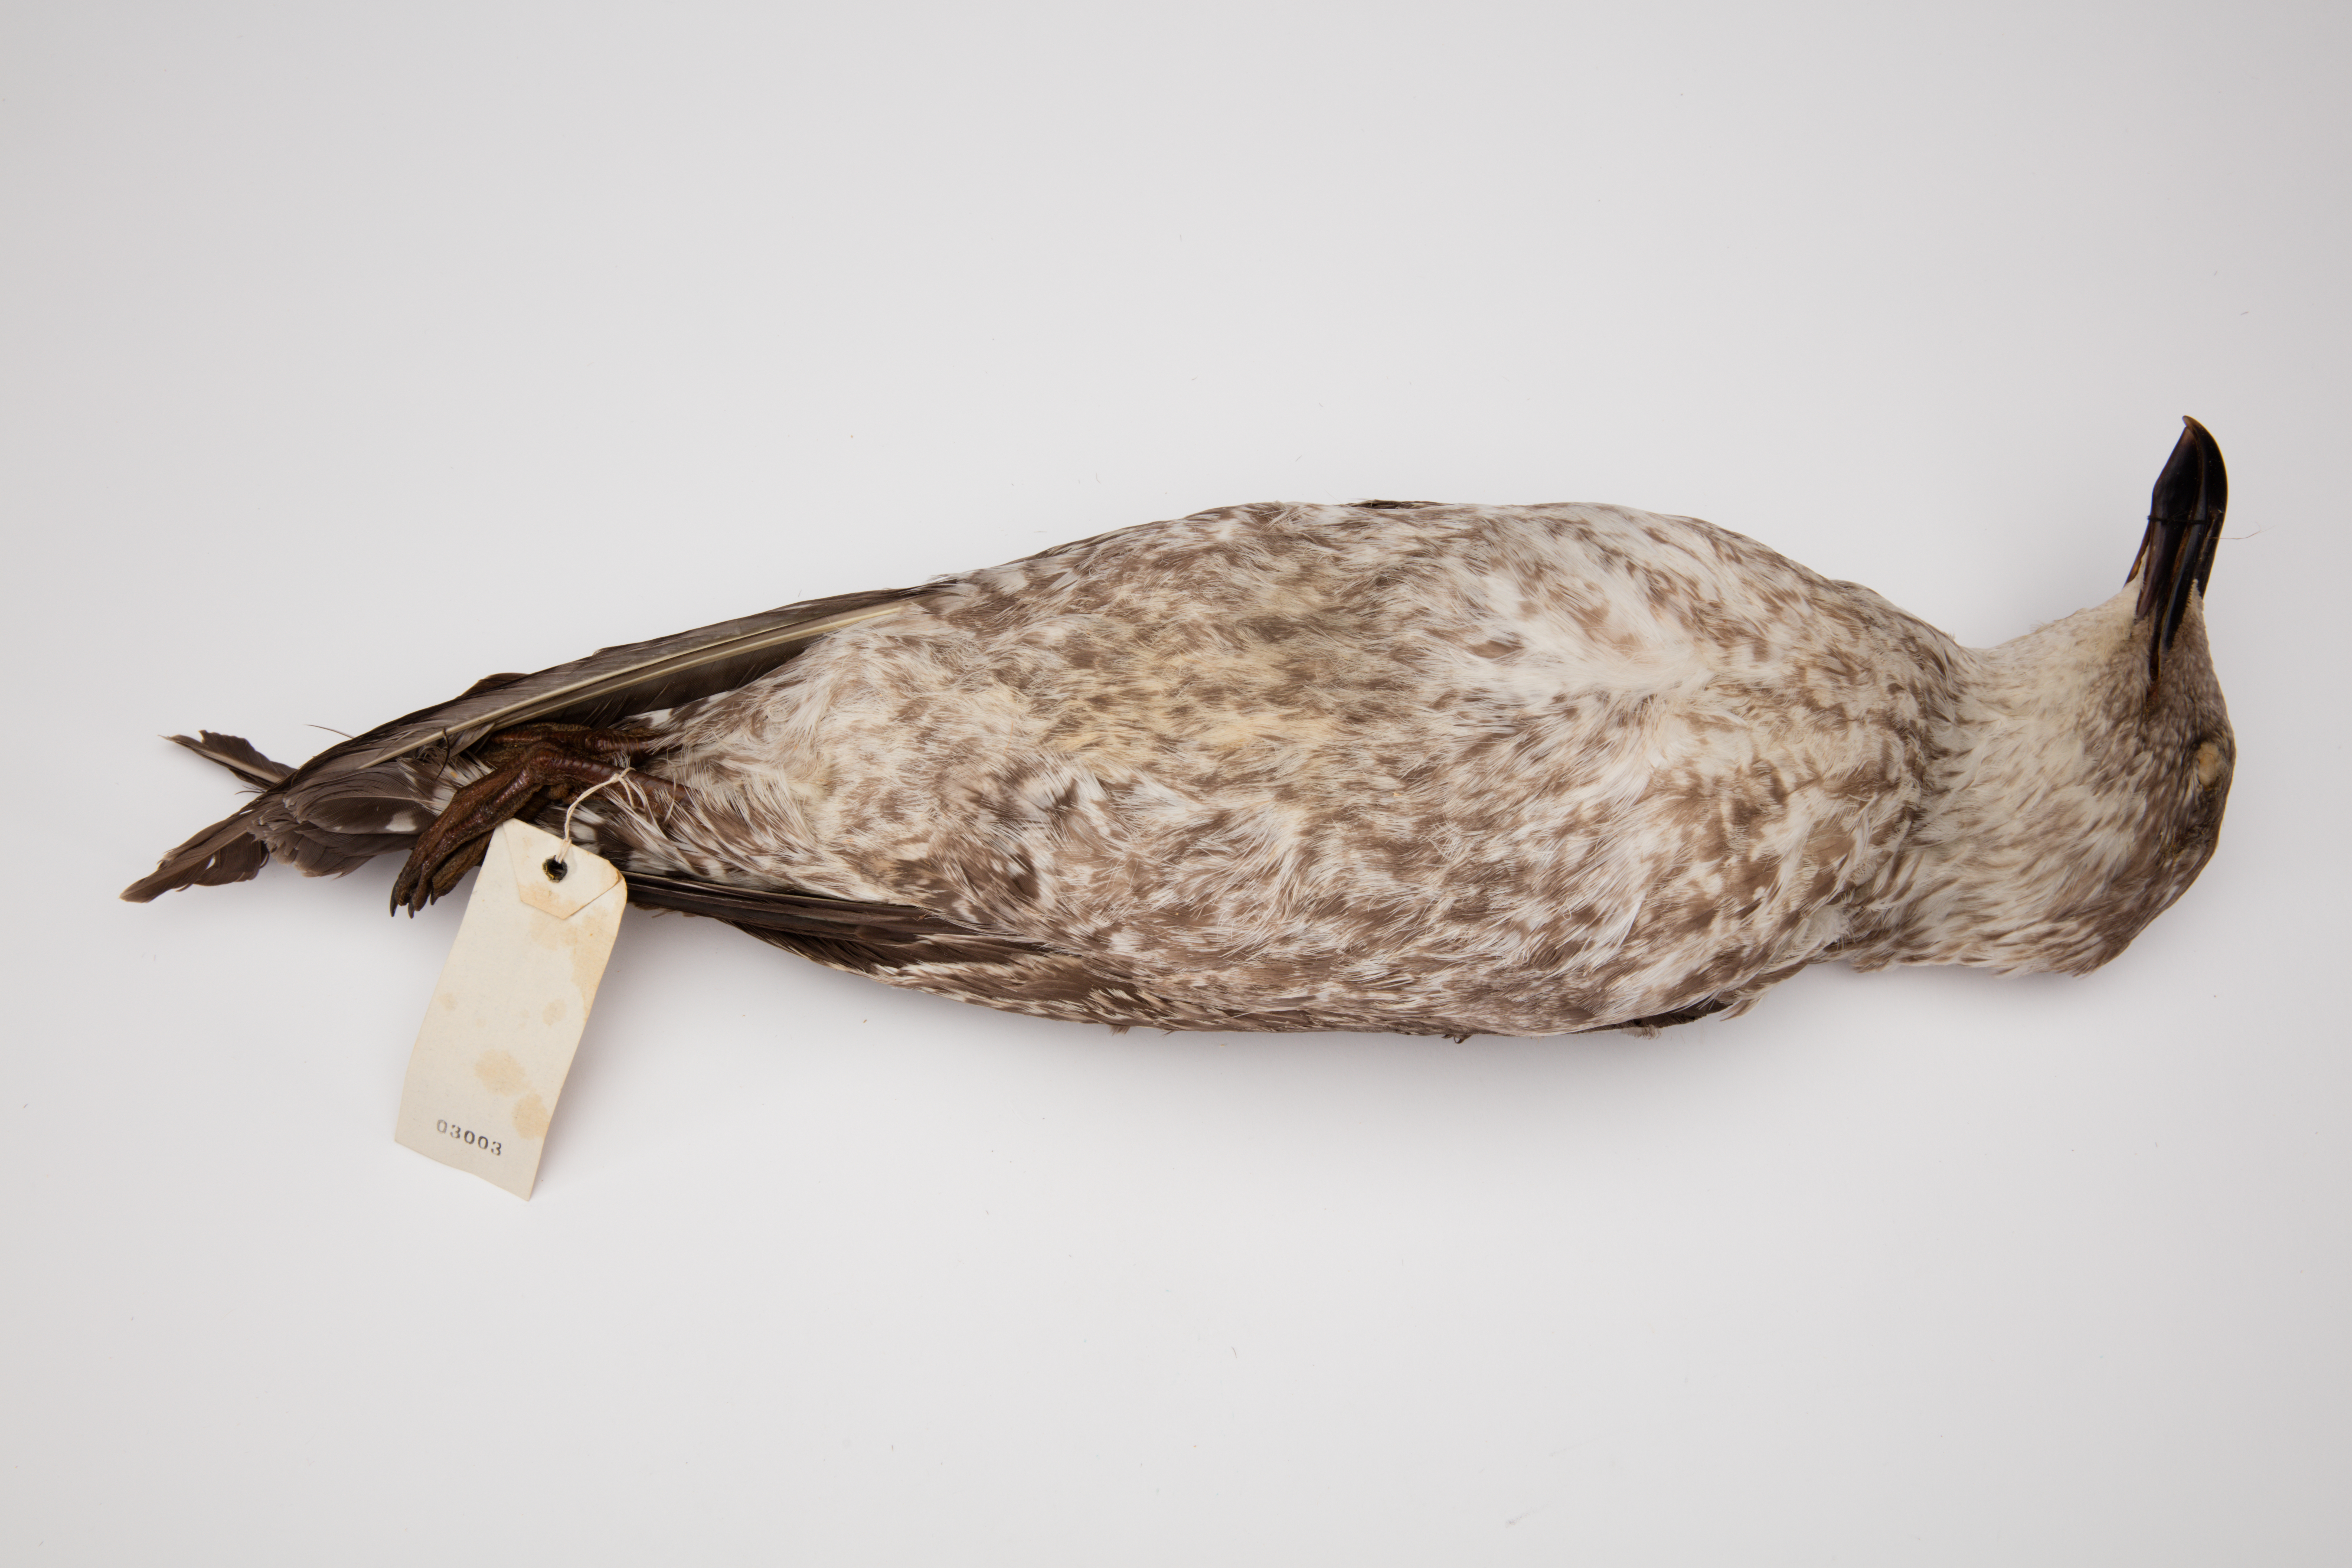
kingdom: Animalia
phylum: Chordata
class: Aves
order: Charadriiformes
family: Laridae
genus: Larus
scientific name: Larus dominicanus
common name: Kelp gull
